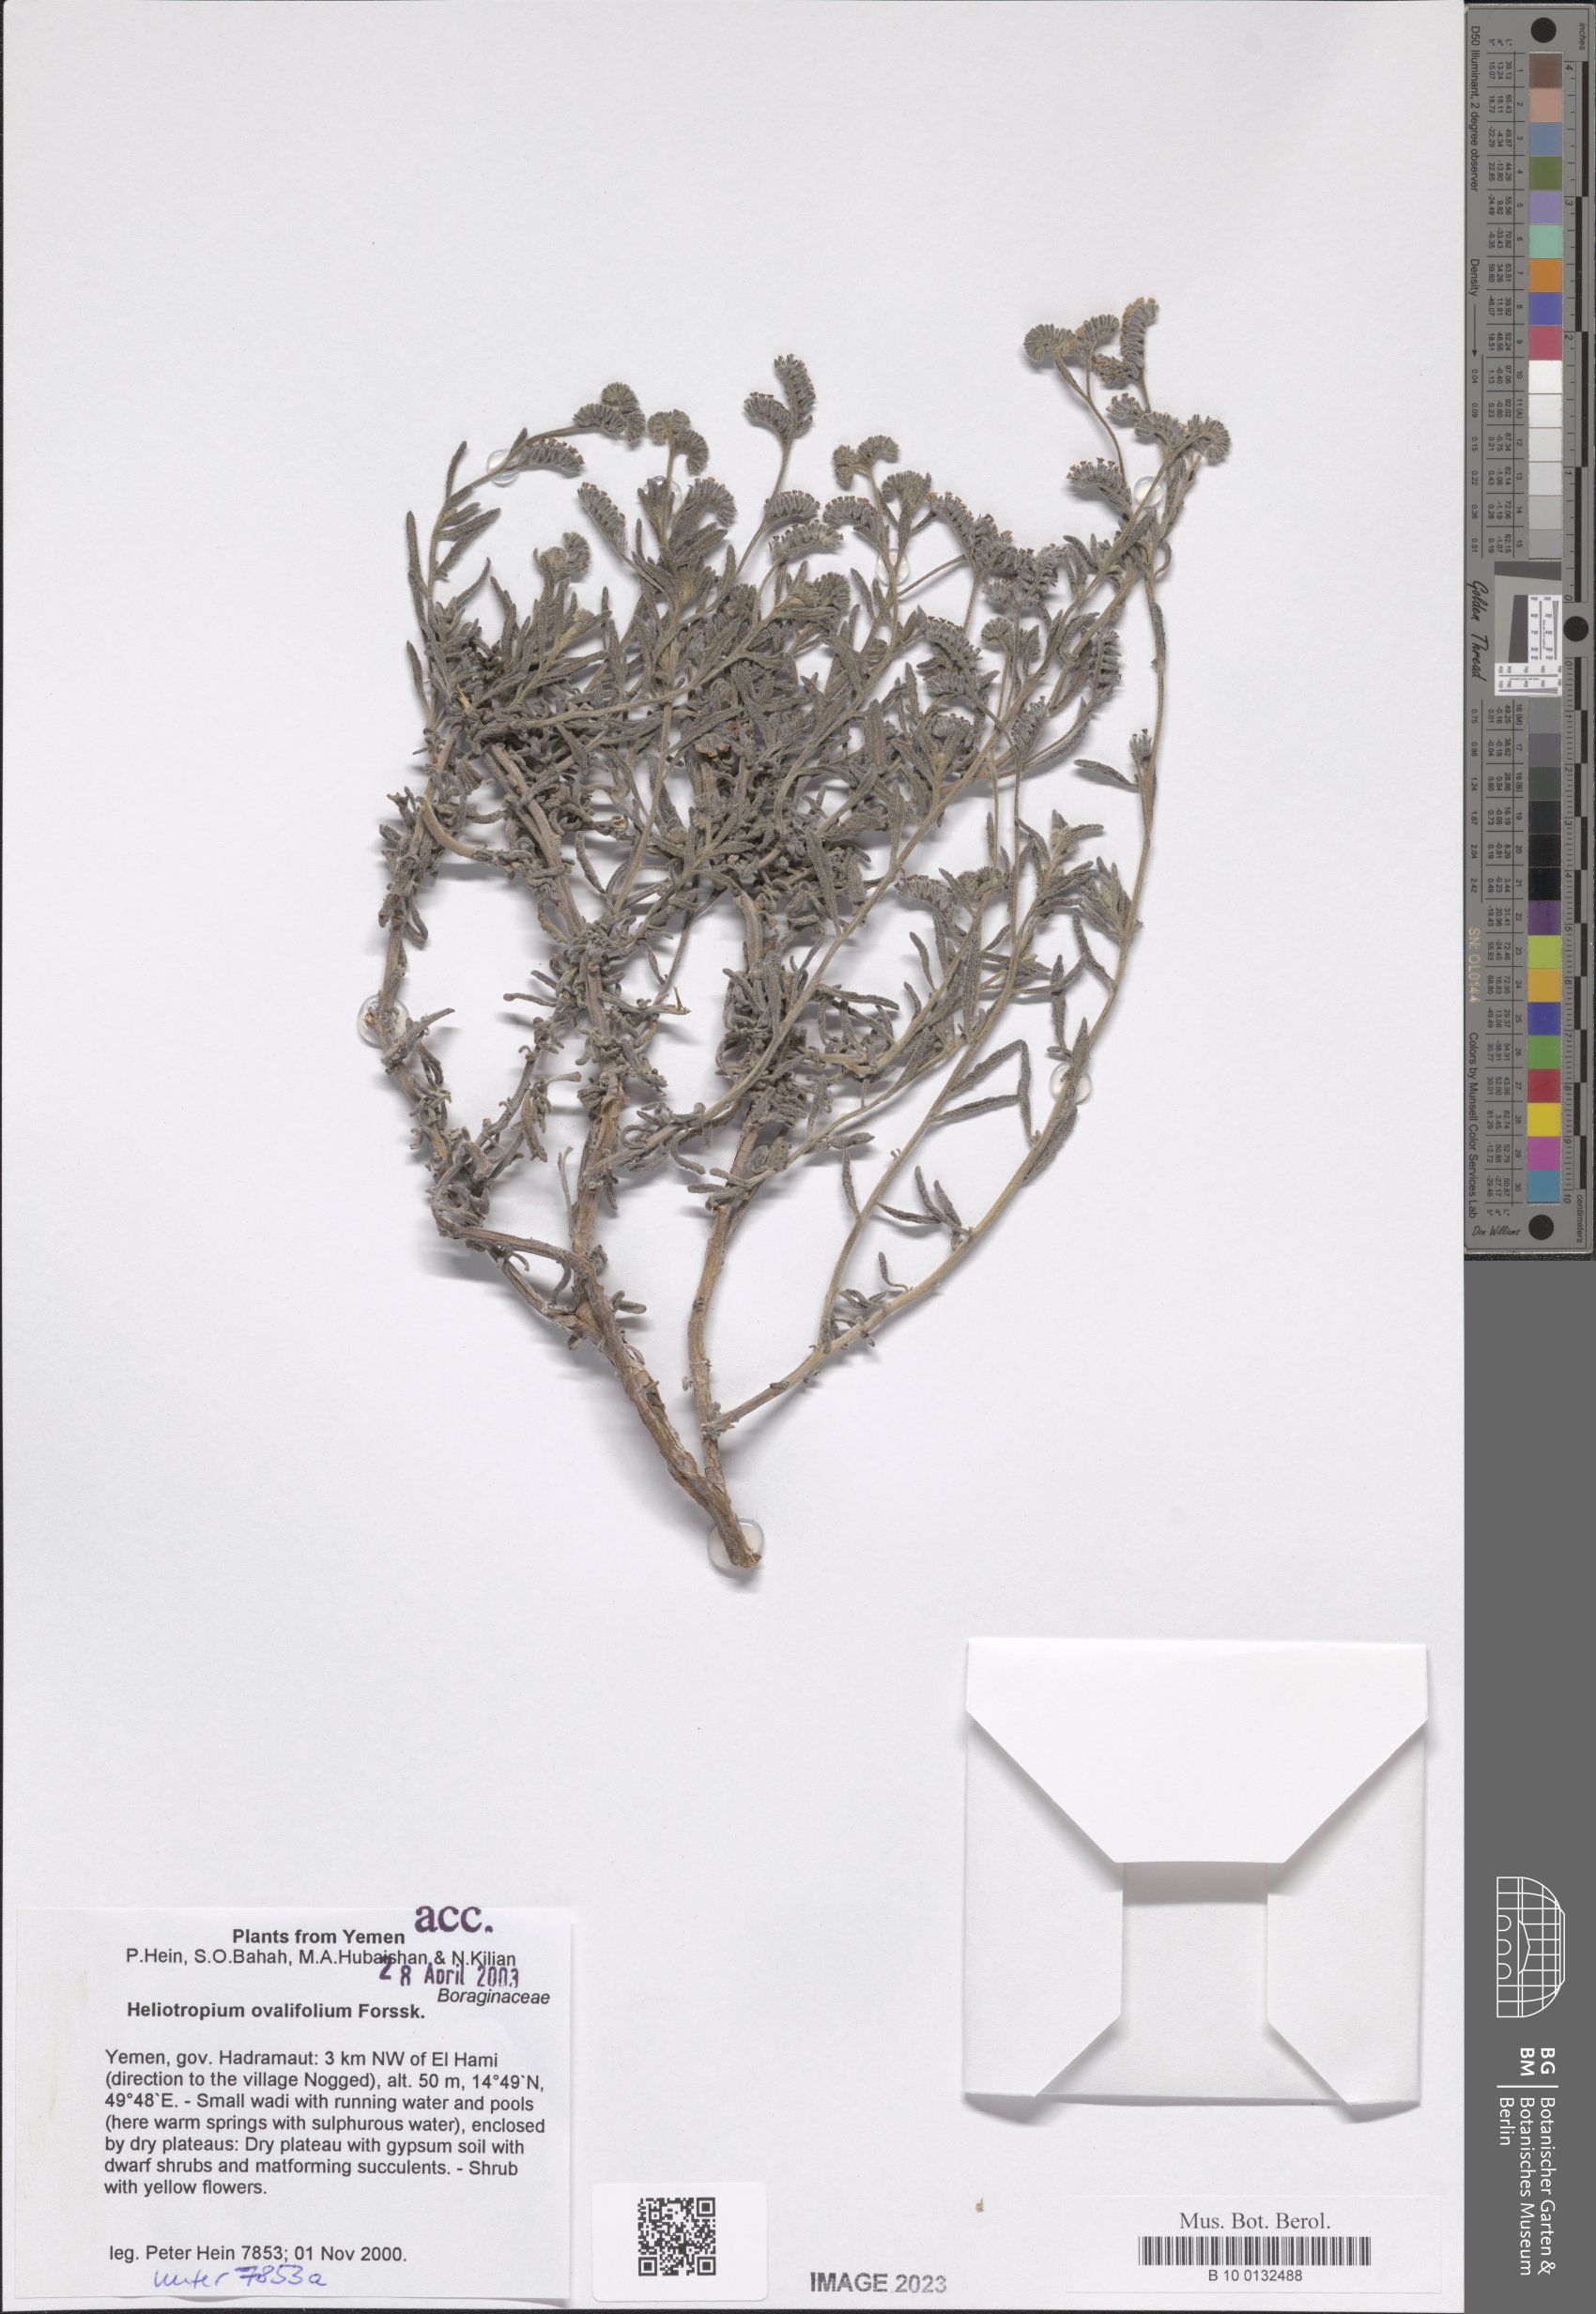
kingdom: Plantae
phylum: Tracheophyta
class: Magnoliopsida
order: Boraginales
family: Heliotropiaceae
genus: Euploca
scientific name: Euploca ovalifolia
